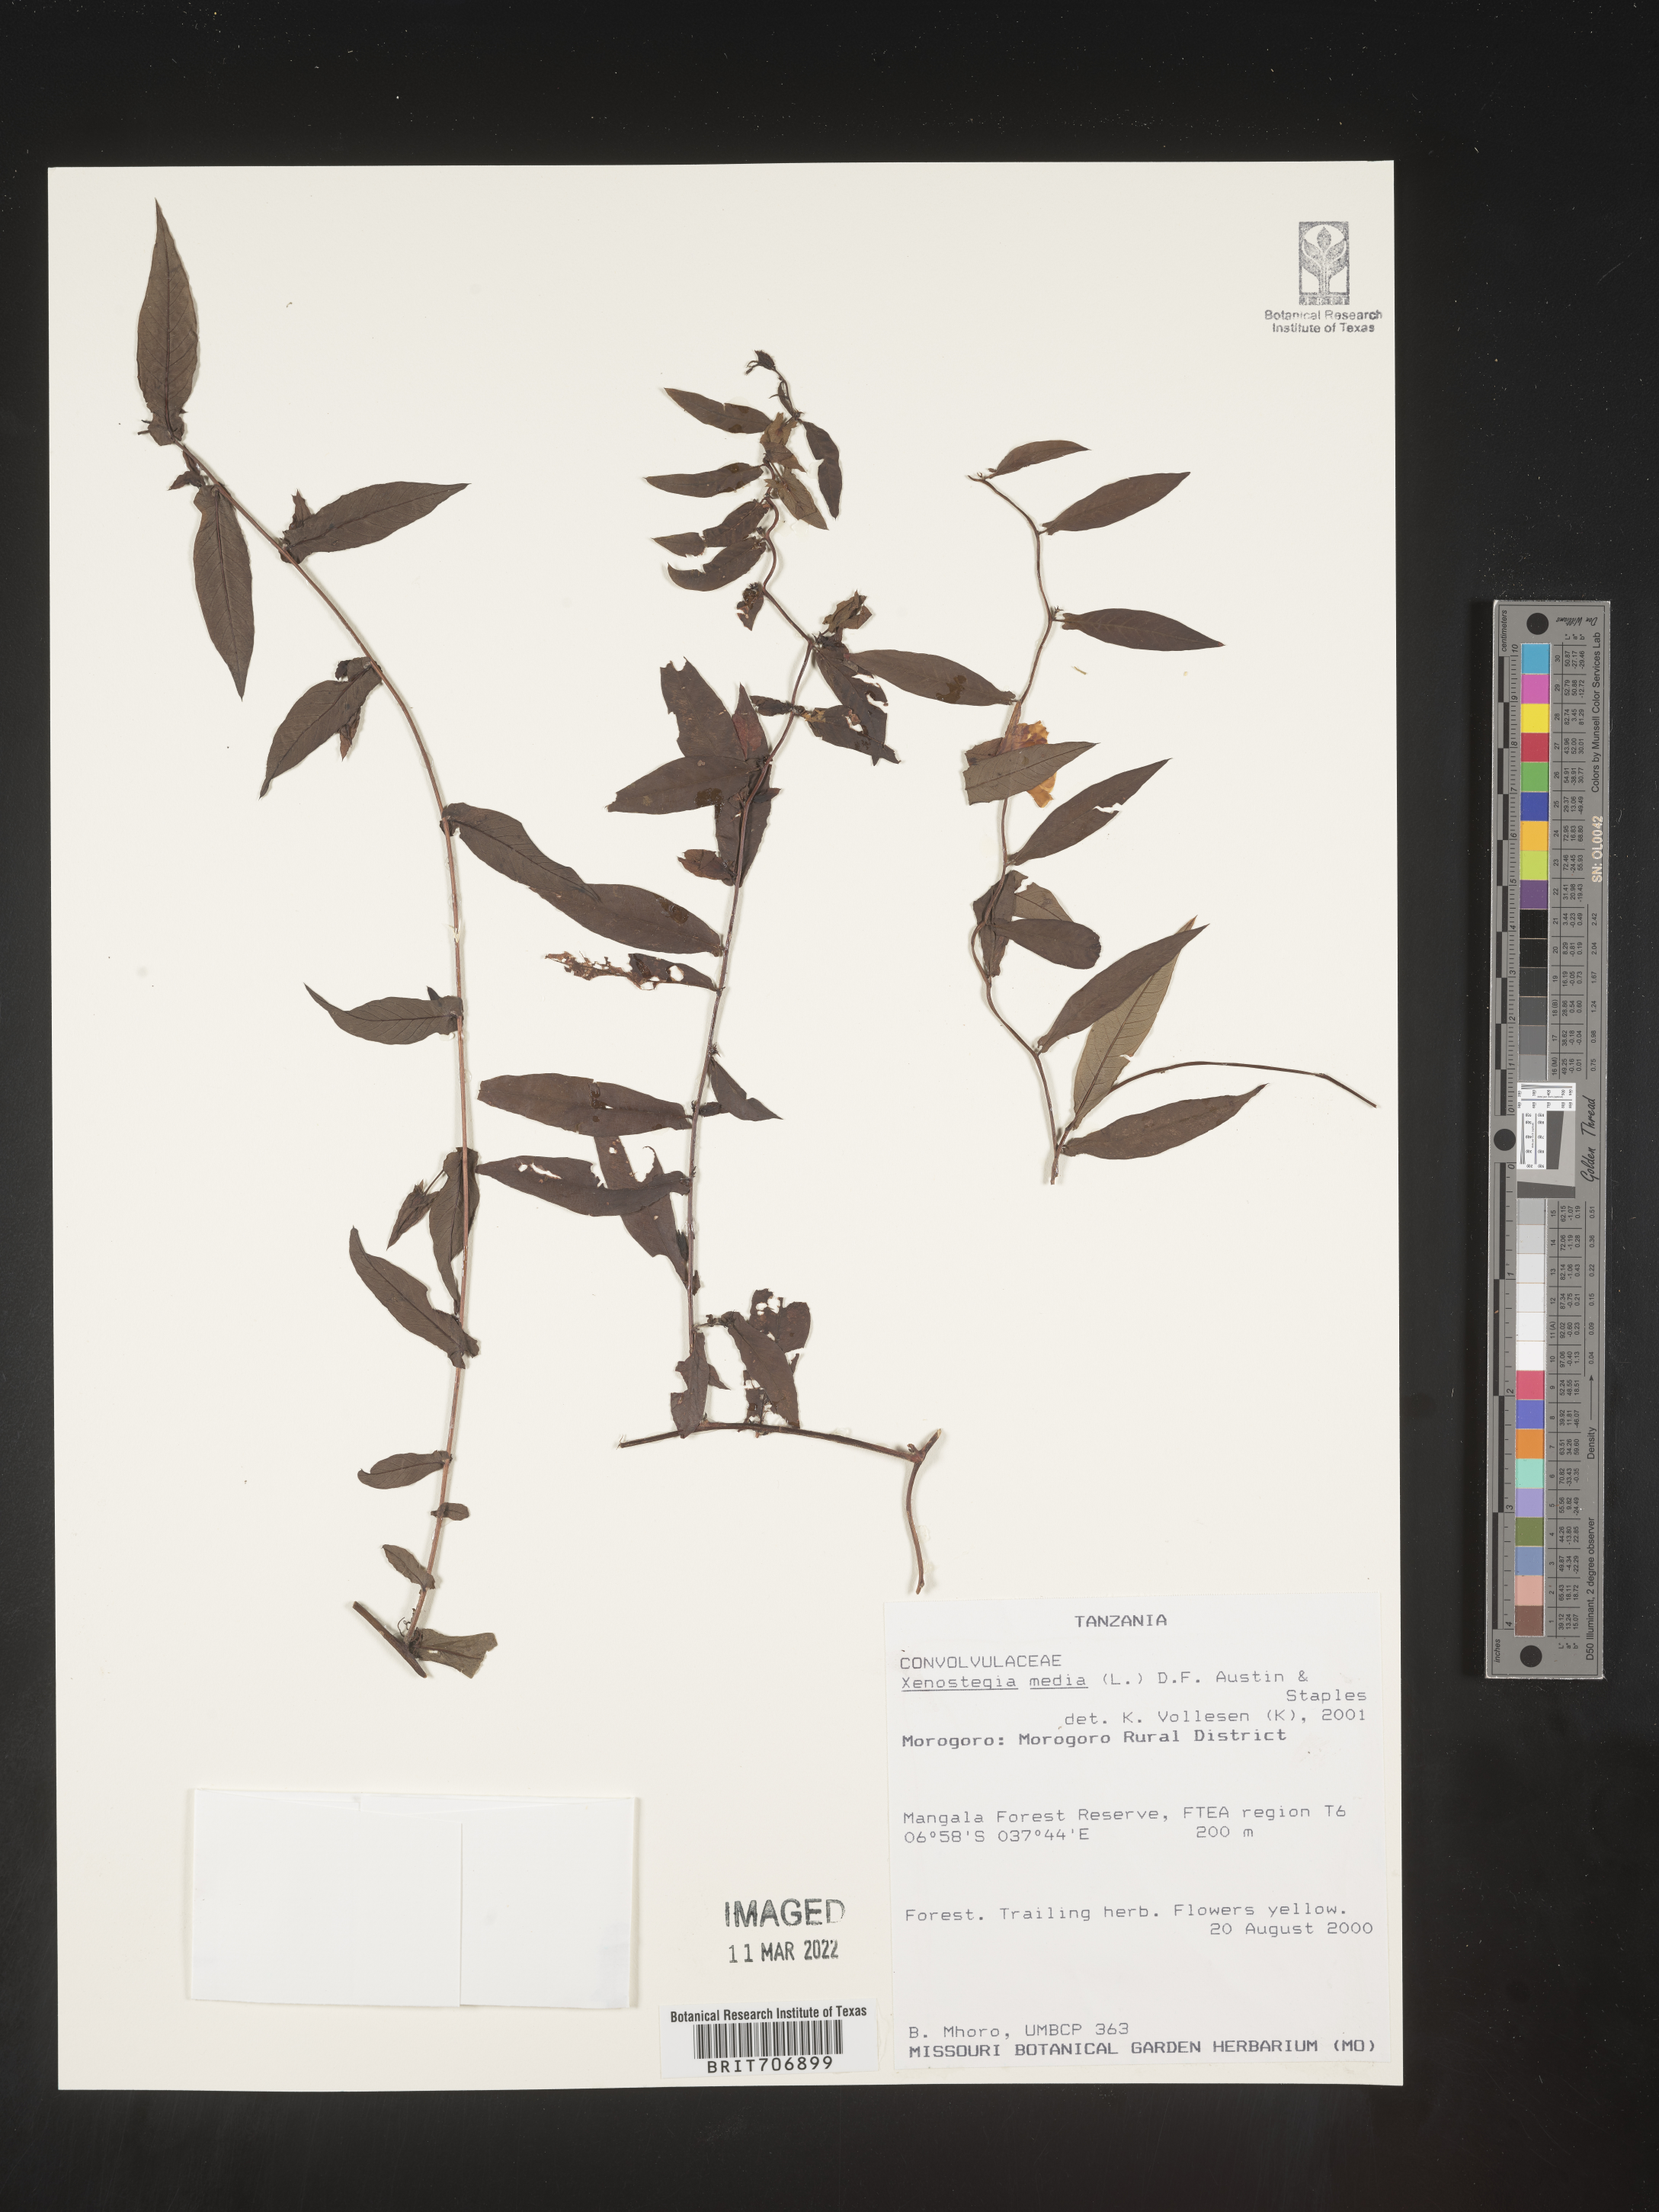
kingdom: Plantae
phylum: Tracheophyta
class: Magnoliopsida
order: Solanales
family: Convolvulaceae
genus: Xenostegia
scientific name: Xenostegia
